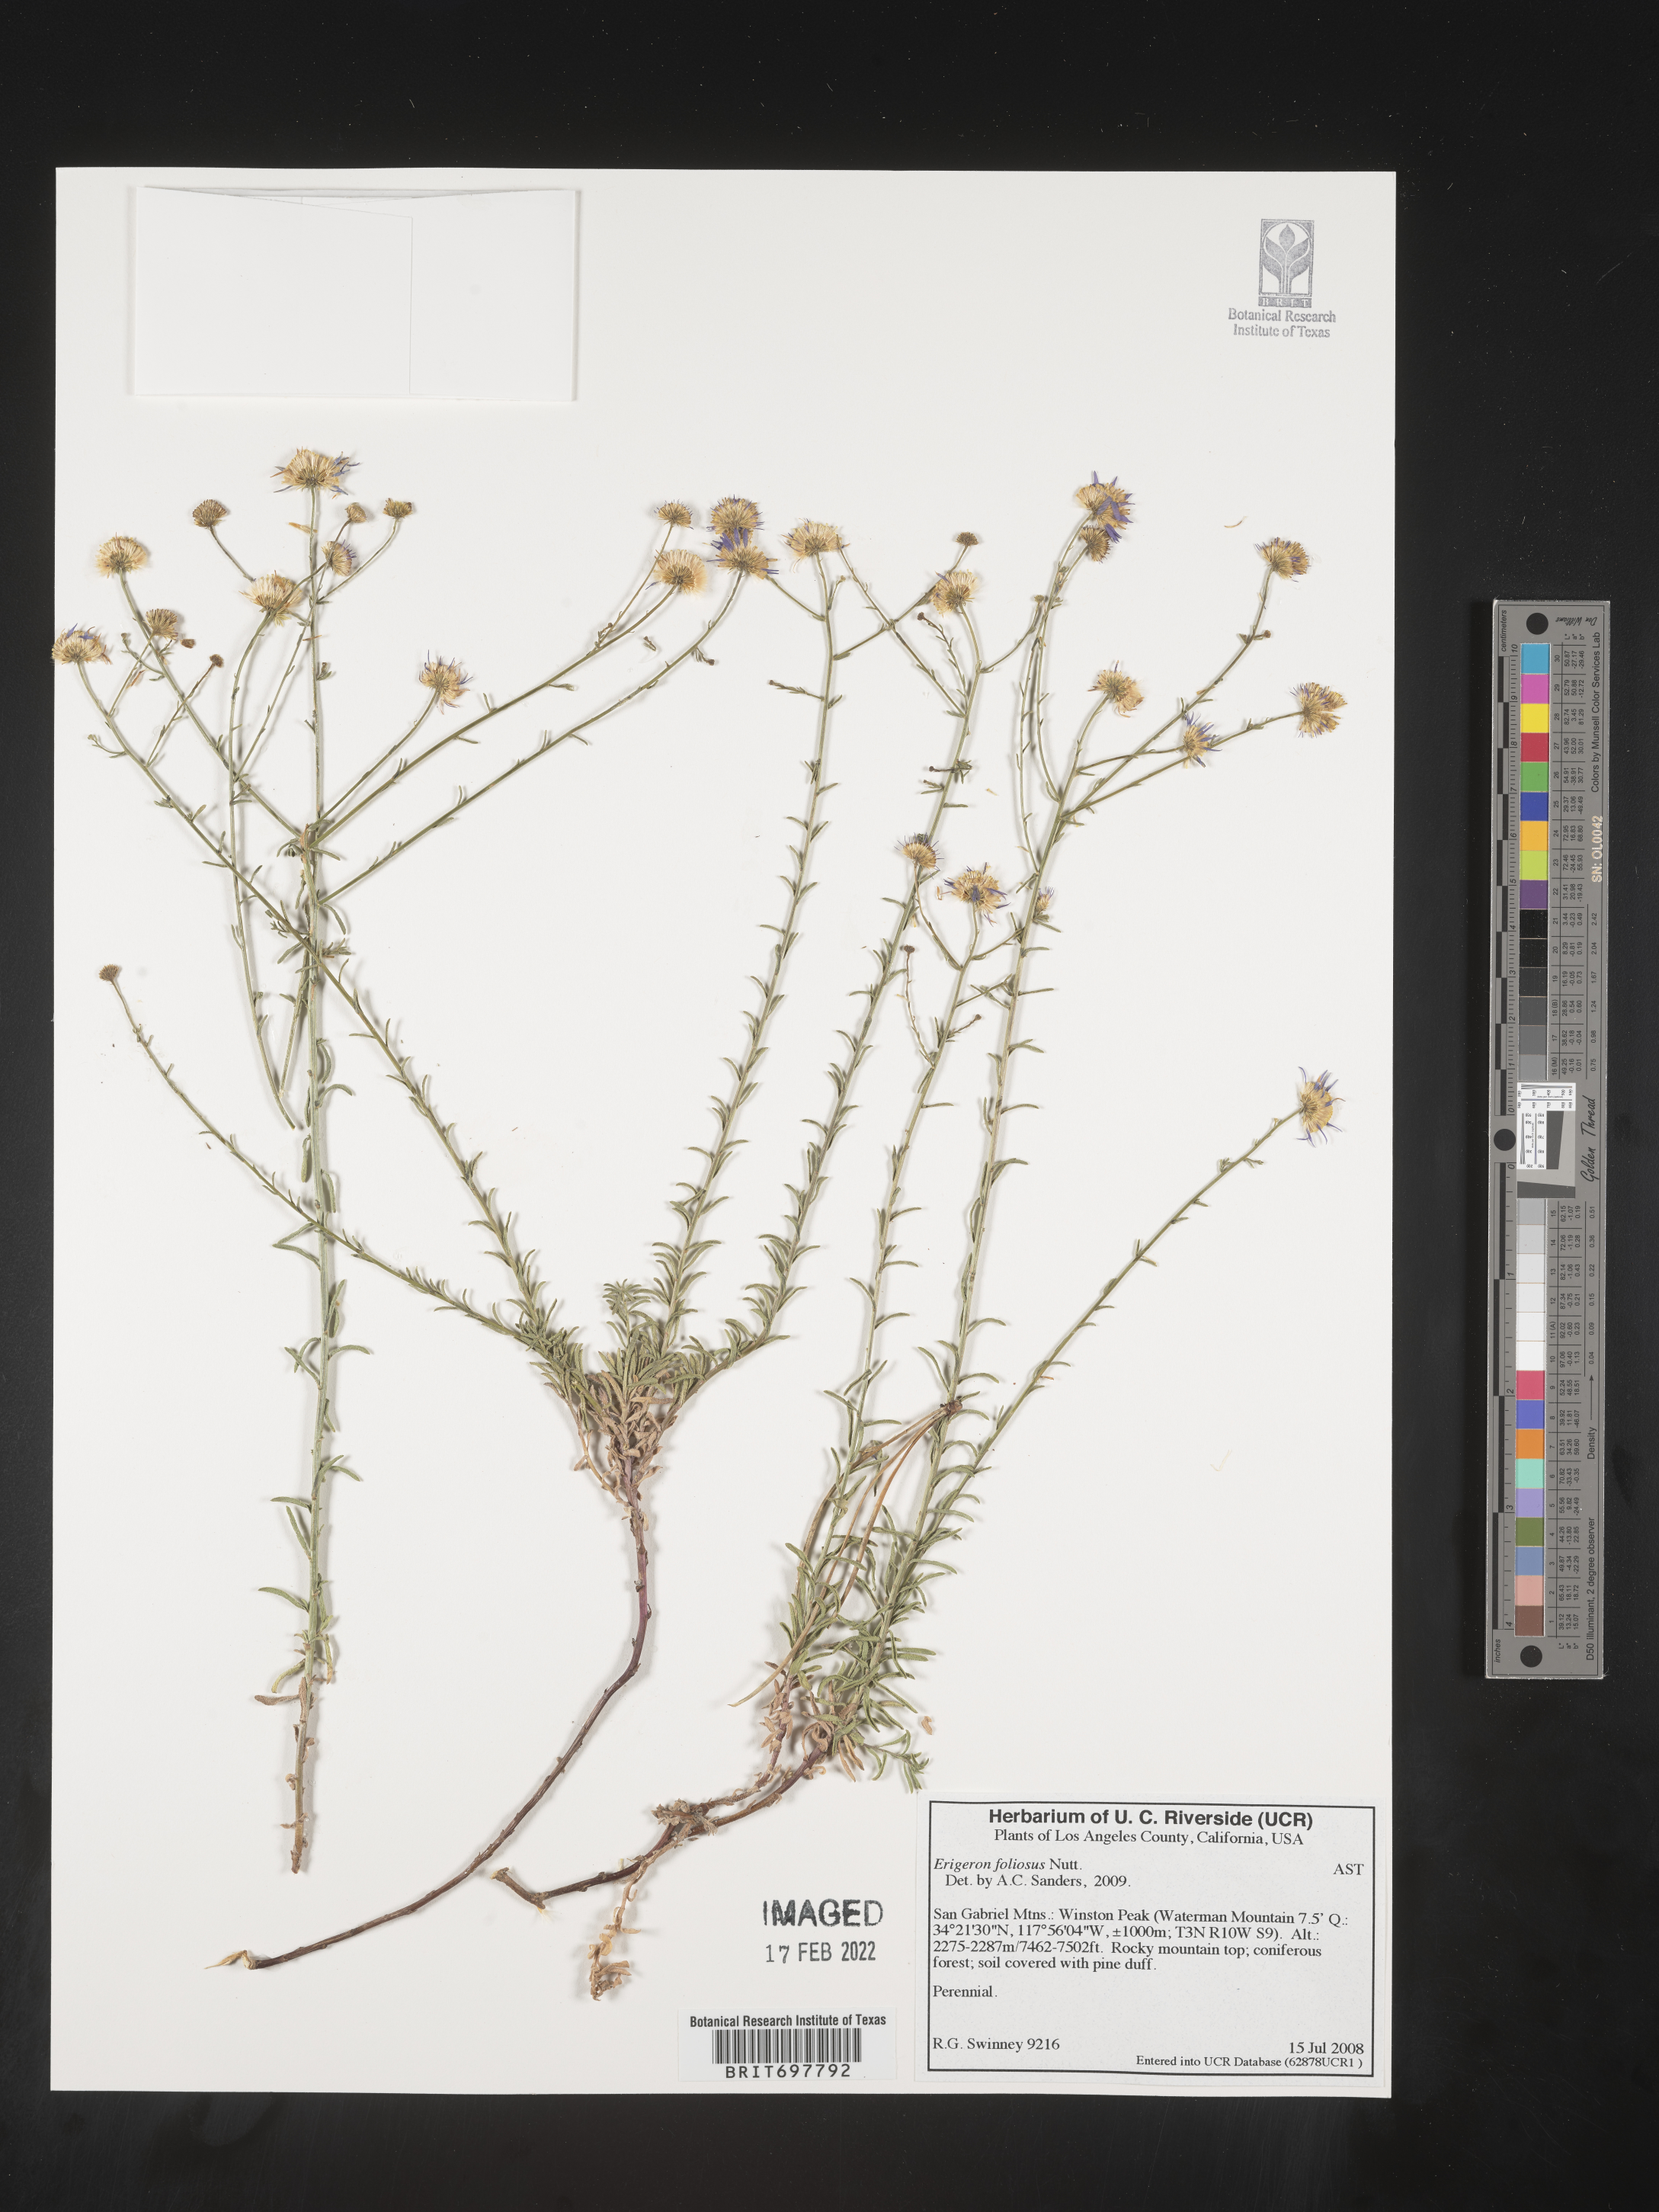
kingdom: Plantae
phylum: Tracheophyta
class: Magnoliopsida
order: Asterales
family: Asteraceae
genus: Erigeron
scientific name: Erigeron foliosus
